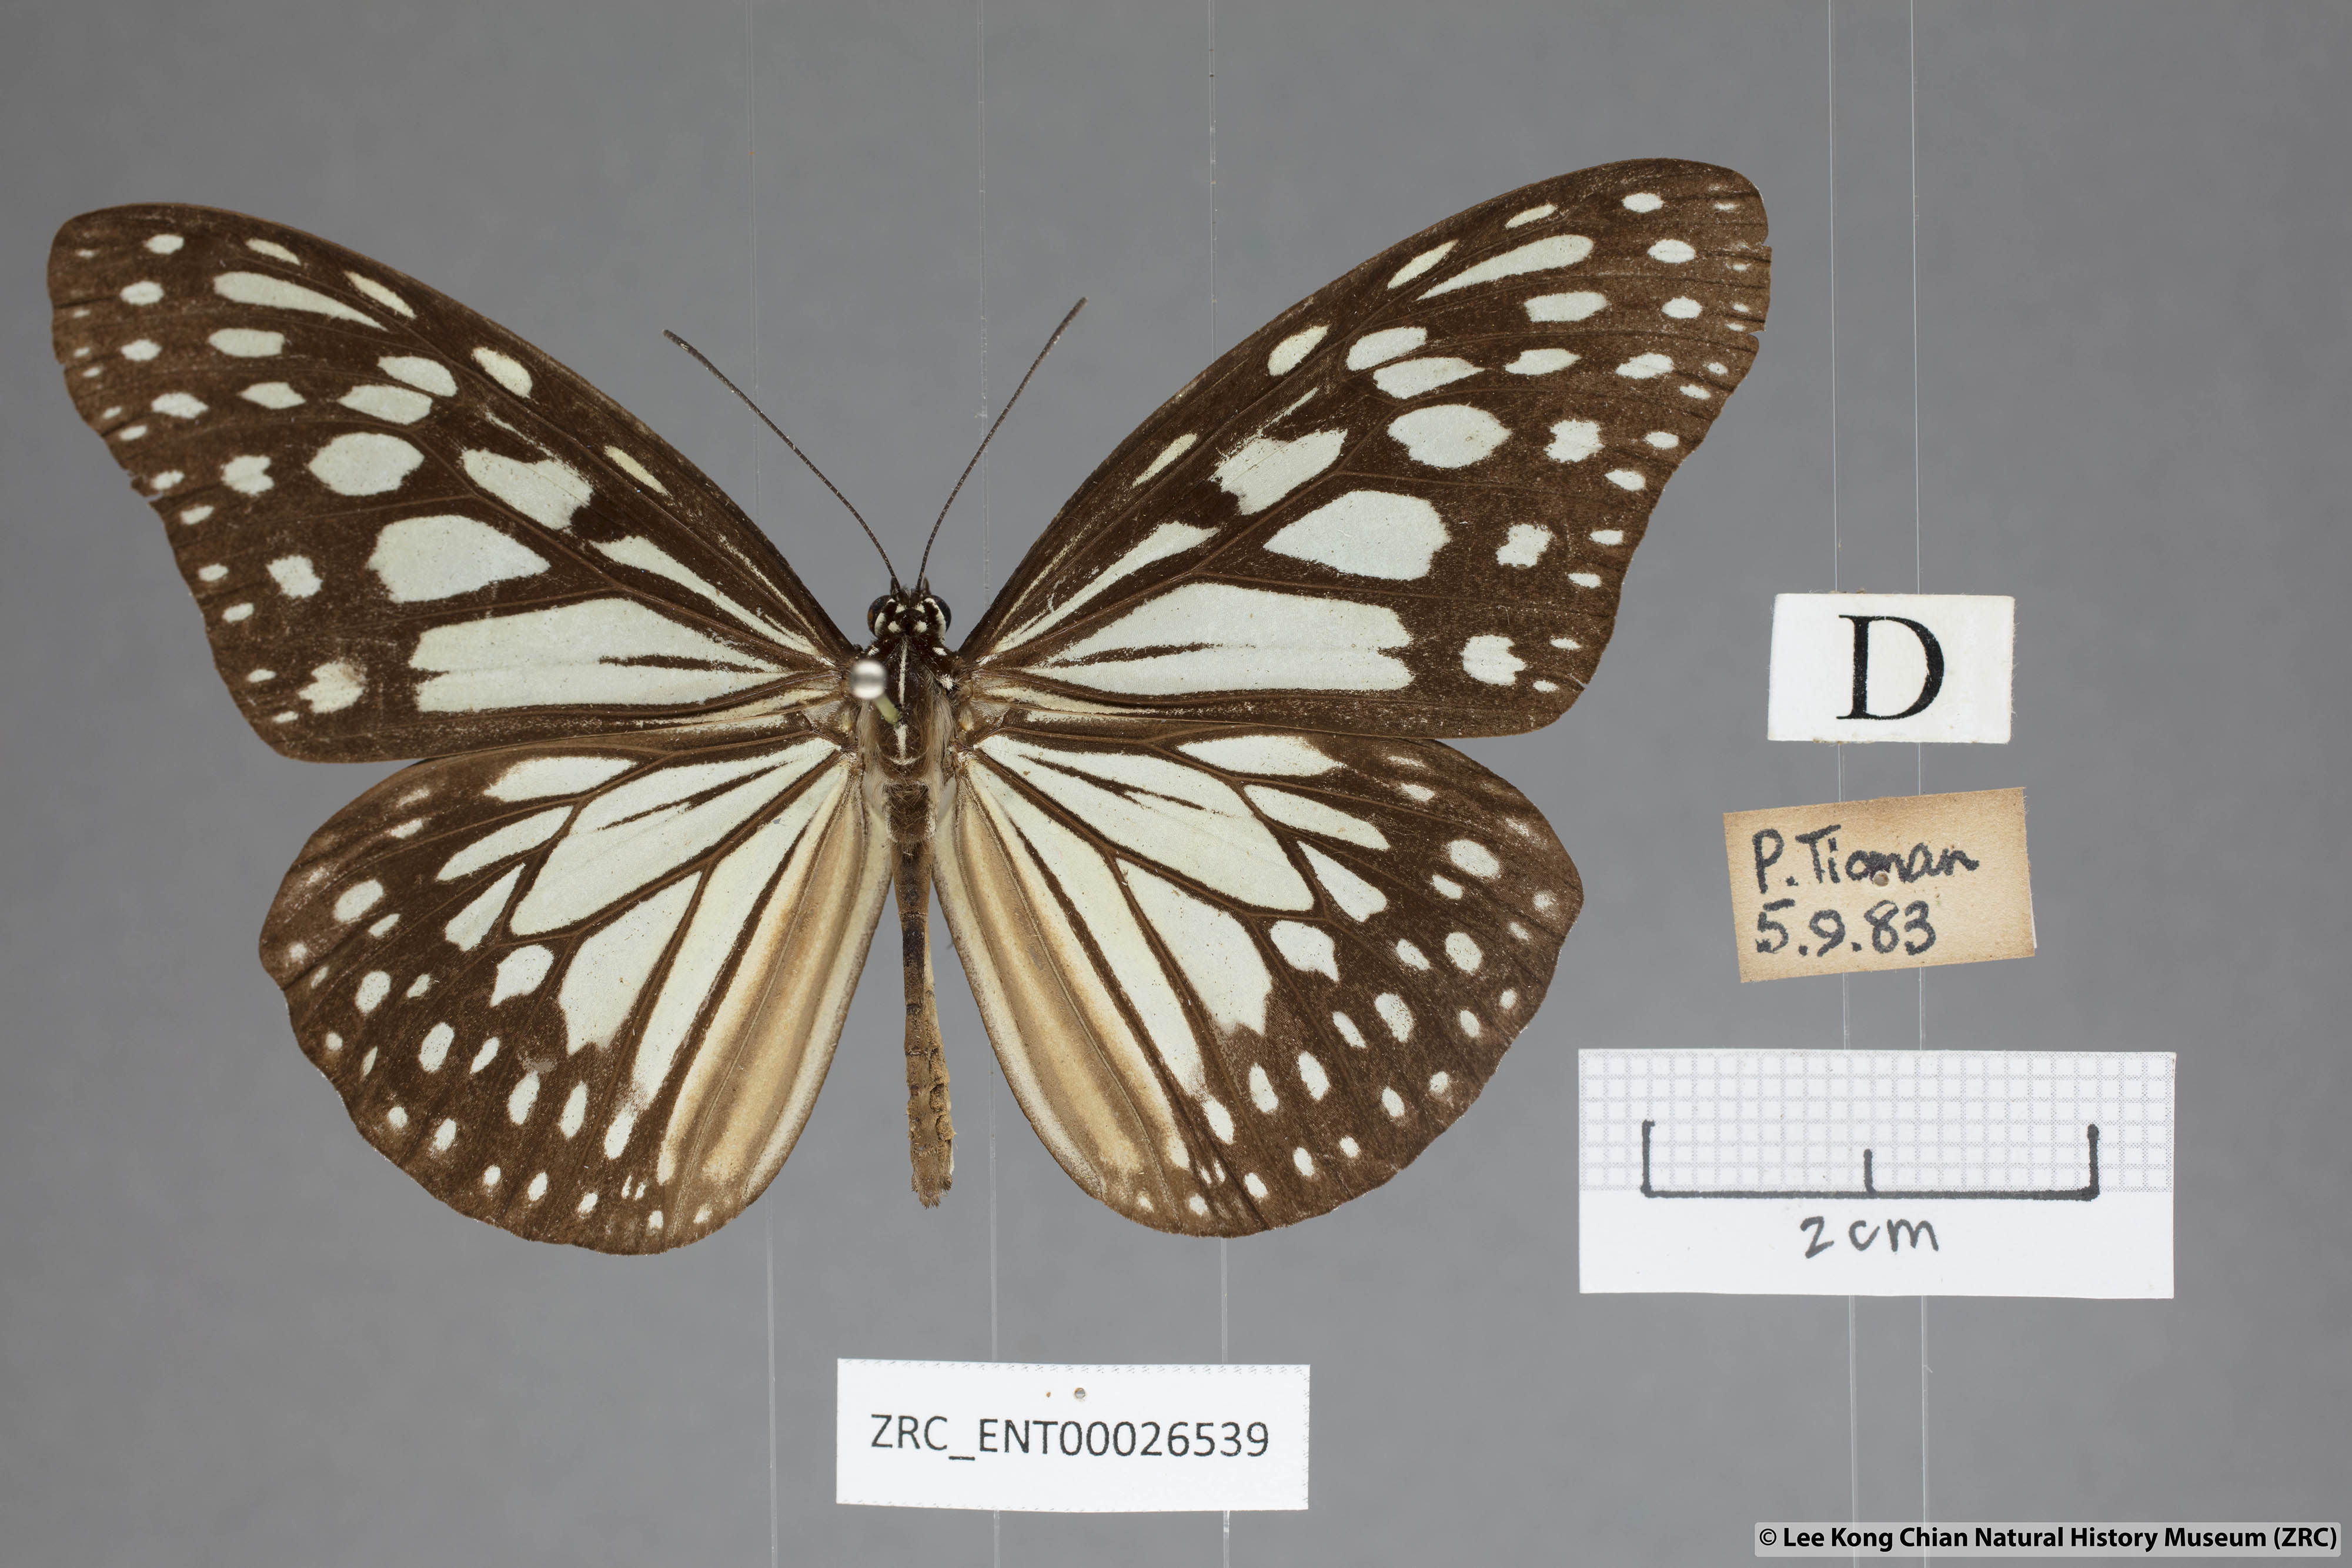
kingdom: Animalia
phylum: Arthropoda
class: Insecta
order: Lepidoptera
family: Nymphalidae
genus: Ideopsis
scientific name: Ideopsis juventa
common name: Grey glassy tiger
